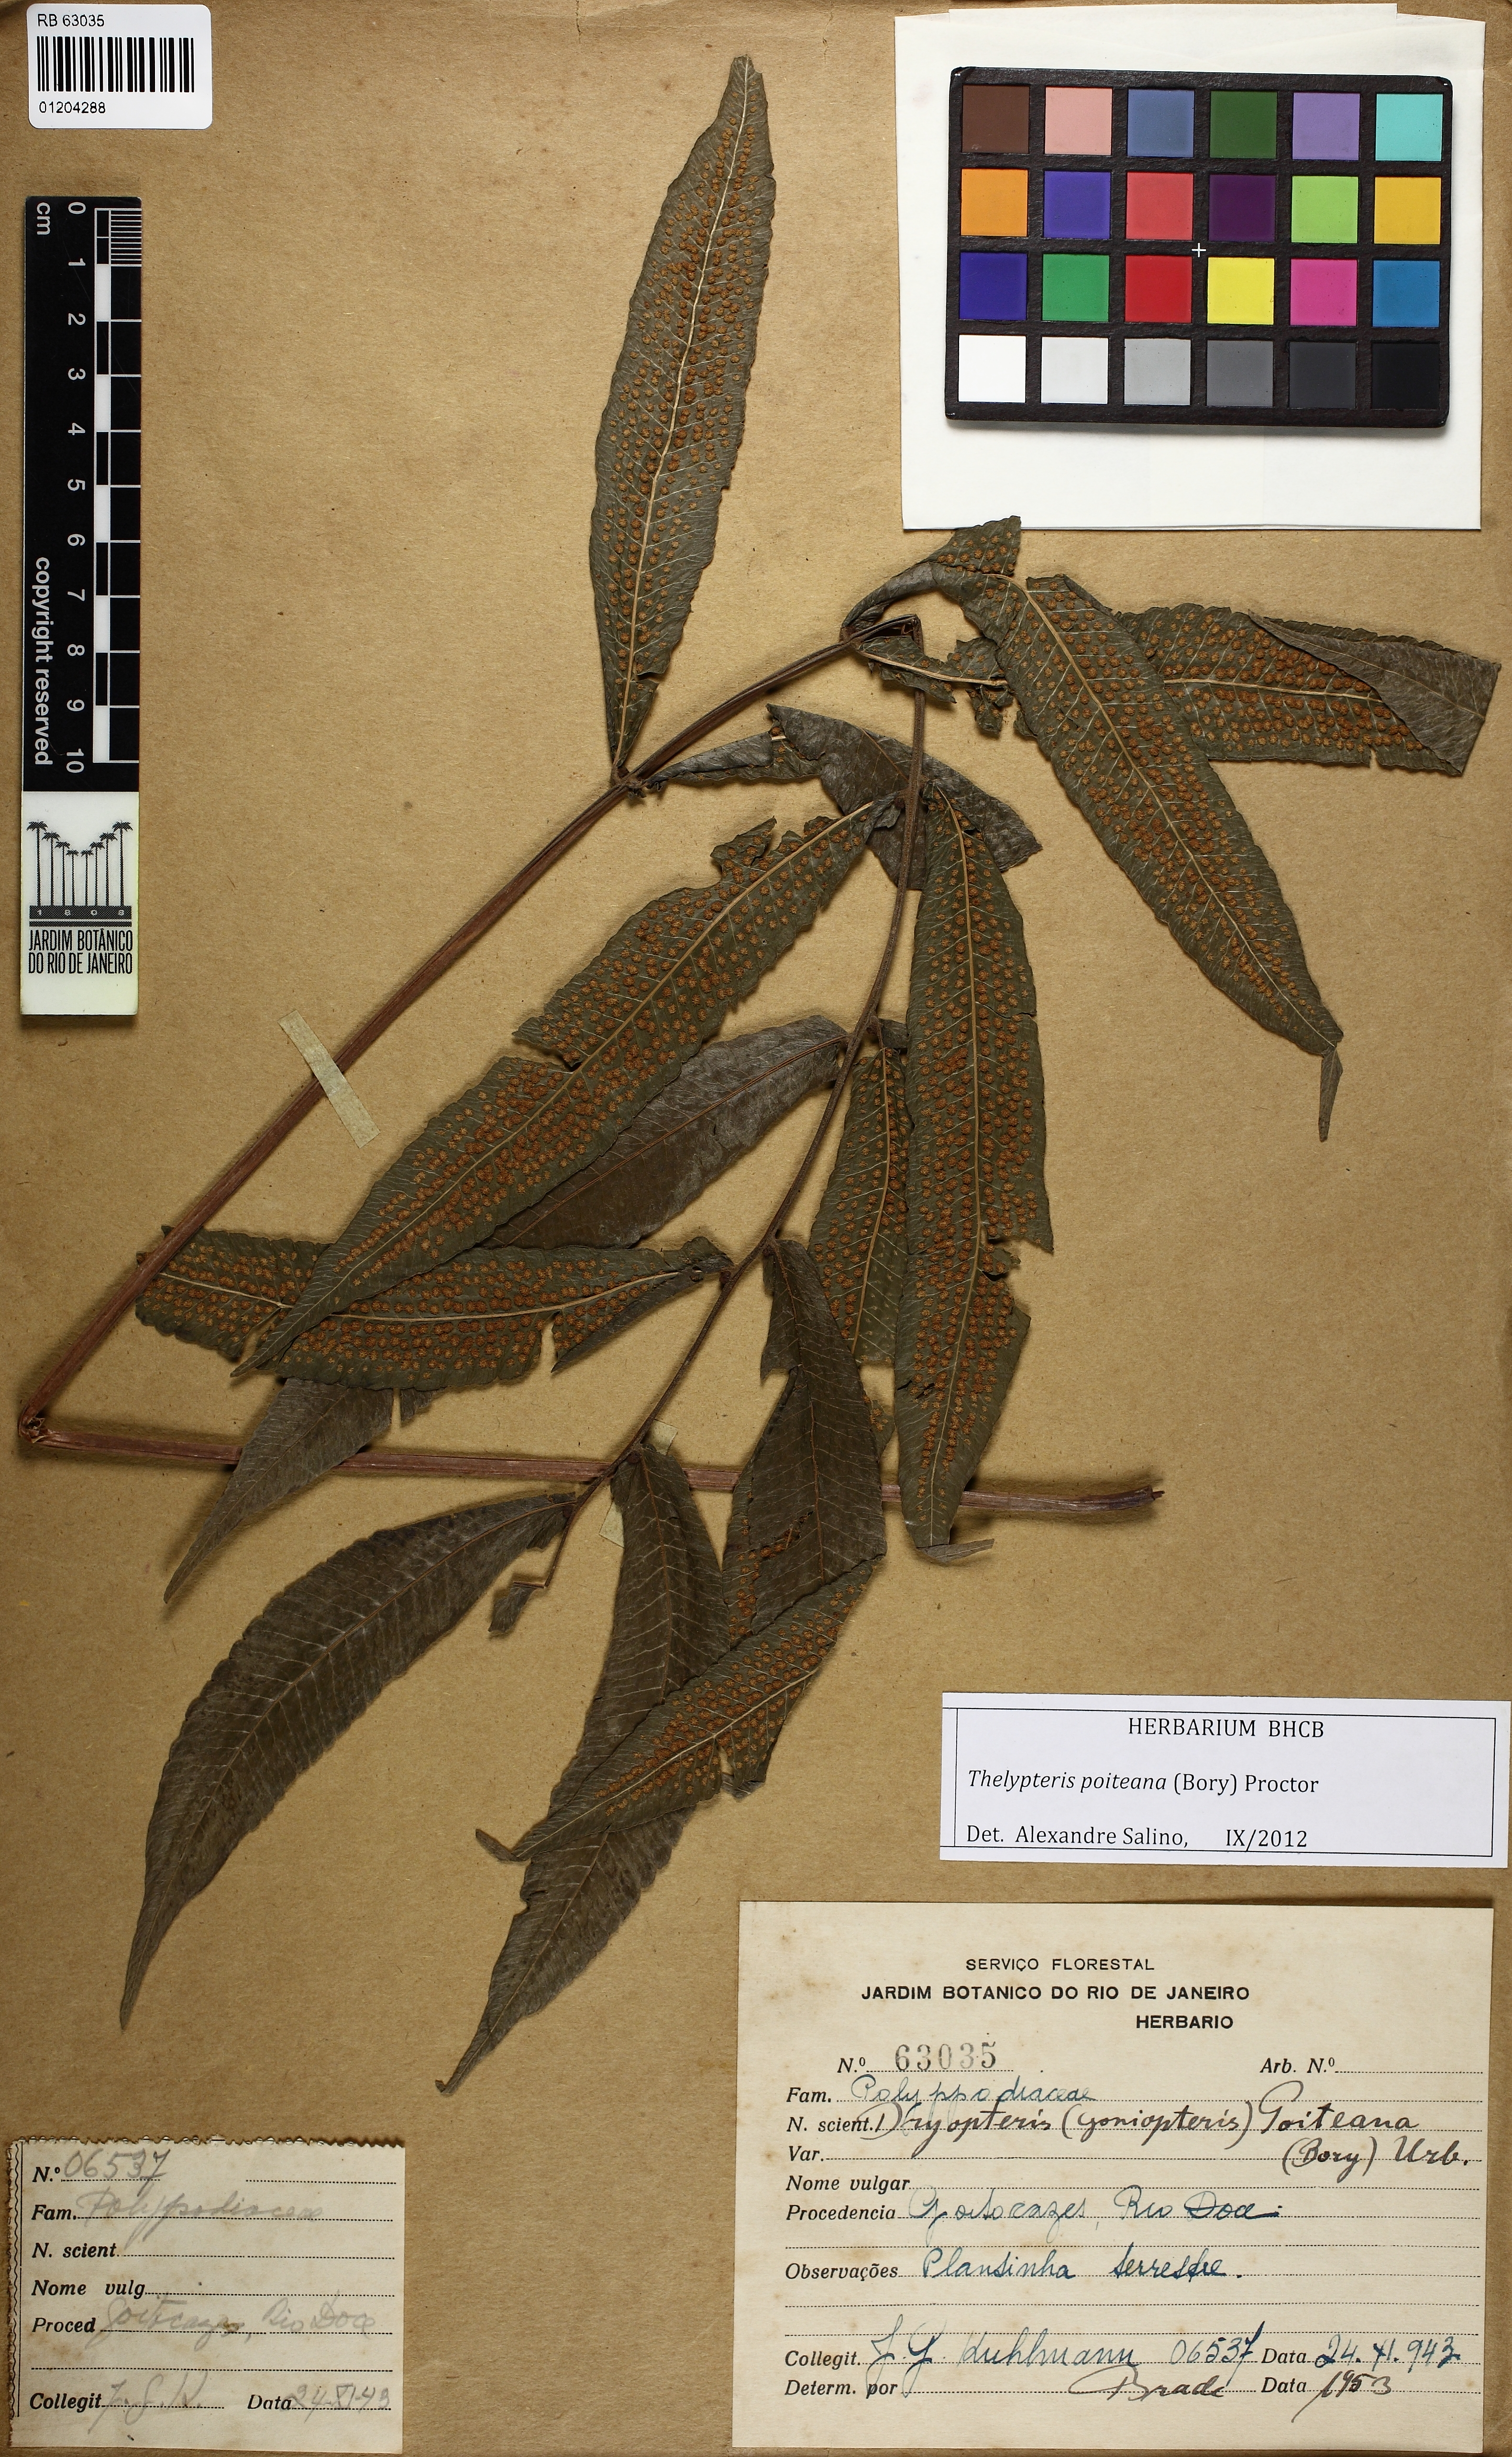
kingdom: Plantae
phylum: Tracheophyta
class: Polypodiopsida
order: Polypodiales
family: Thelypteridaceae
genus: Goniopteris
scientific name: Goniopteris poiteana
